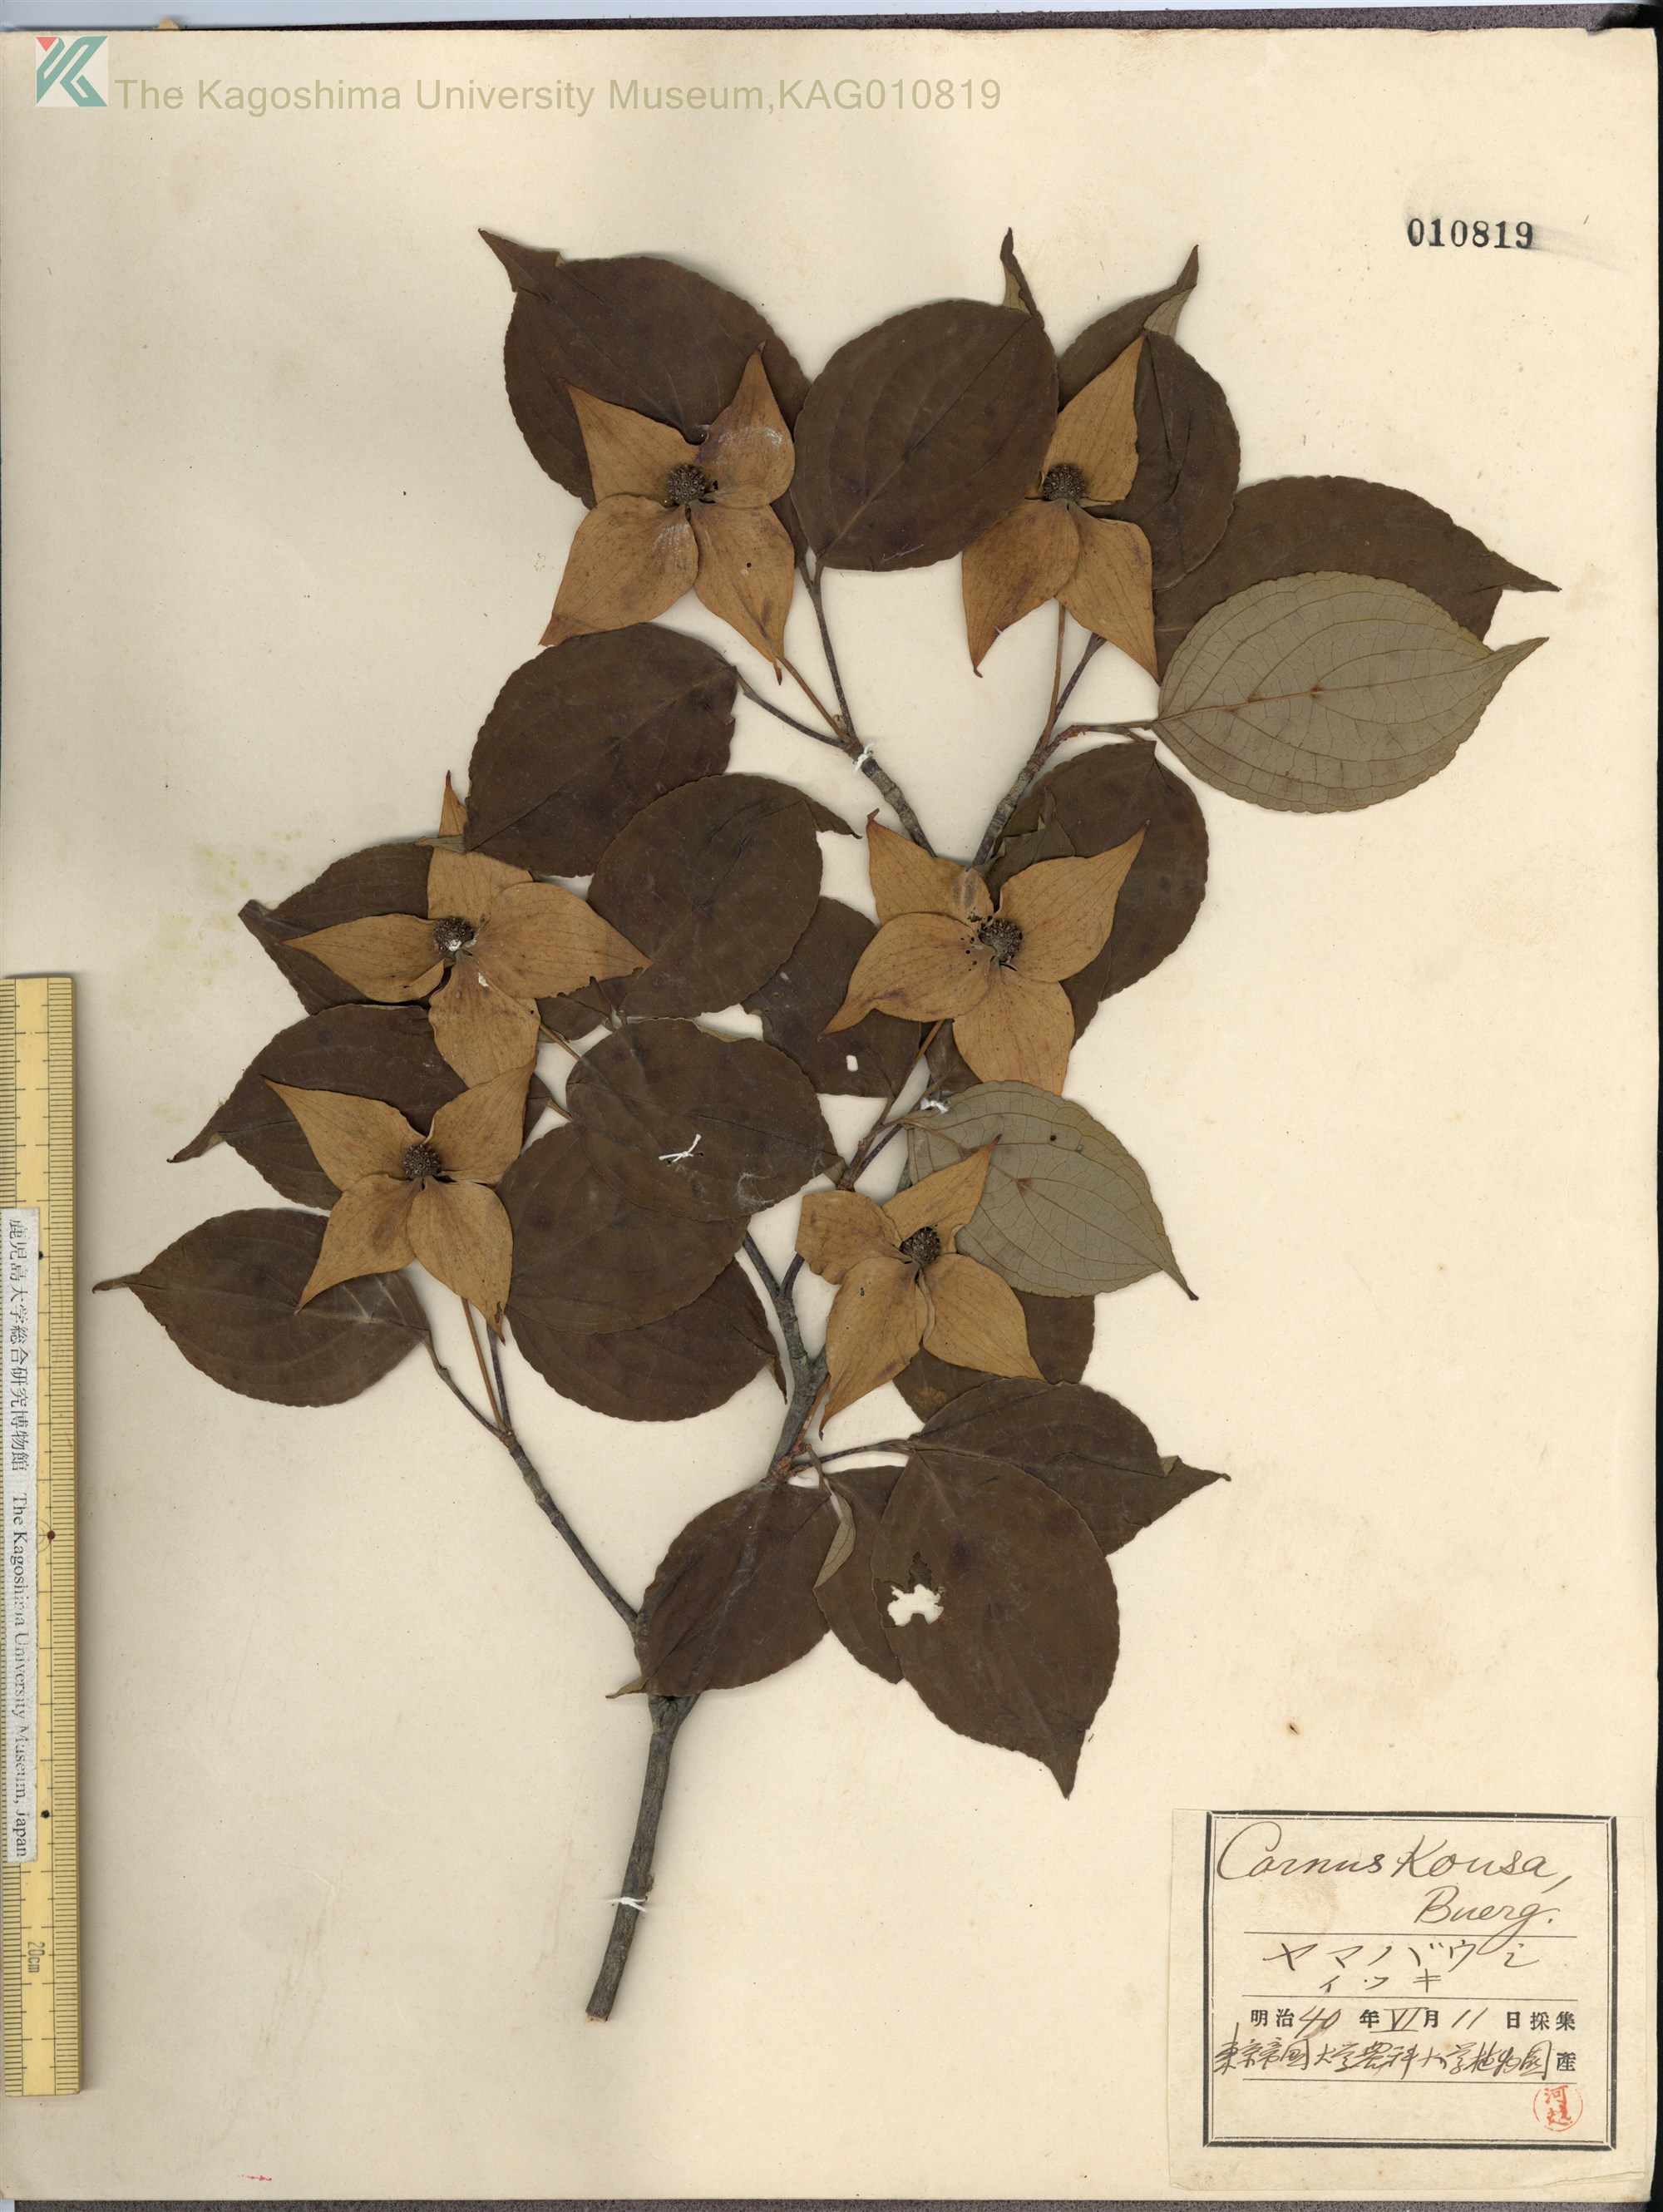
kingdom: Plantae
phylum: Tracheophyta
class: Magnoliopsida
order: Cornales
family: Cornaceae
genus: Cornus
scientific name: Cornus kousa
